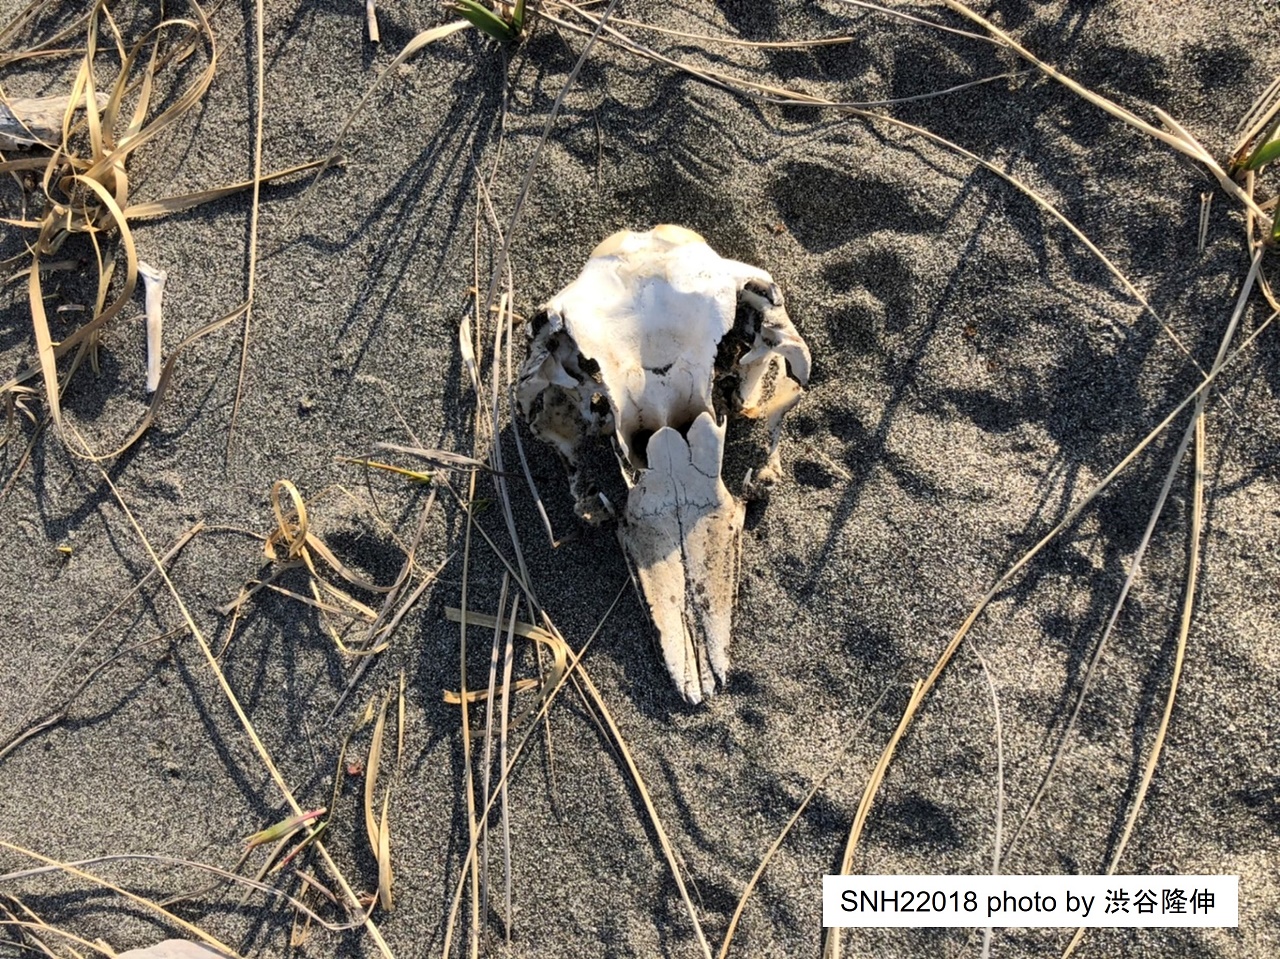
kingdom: Animalia
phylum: Chordata
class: Mammalia
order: Cetacea
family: Phocoenidae
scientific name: Phocoenidae
